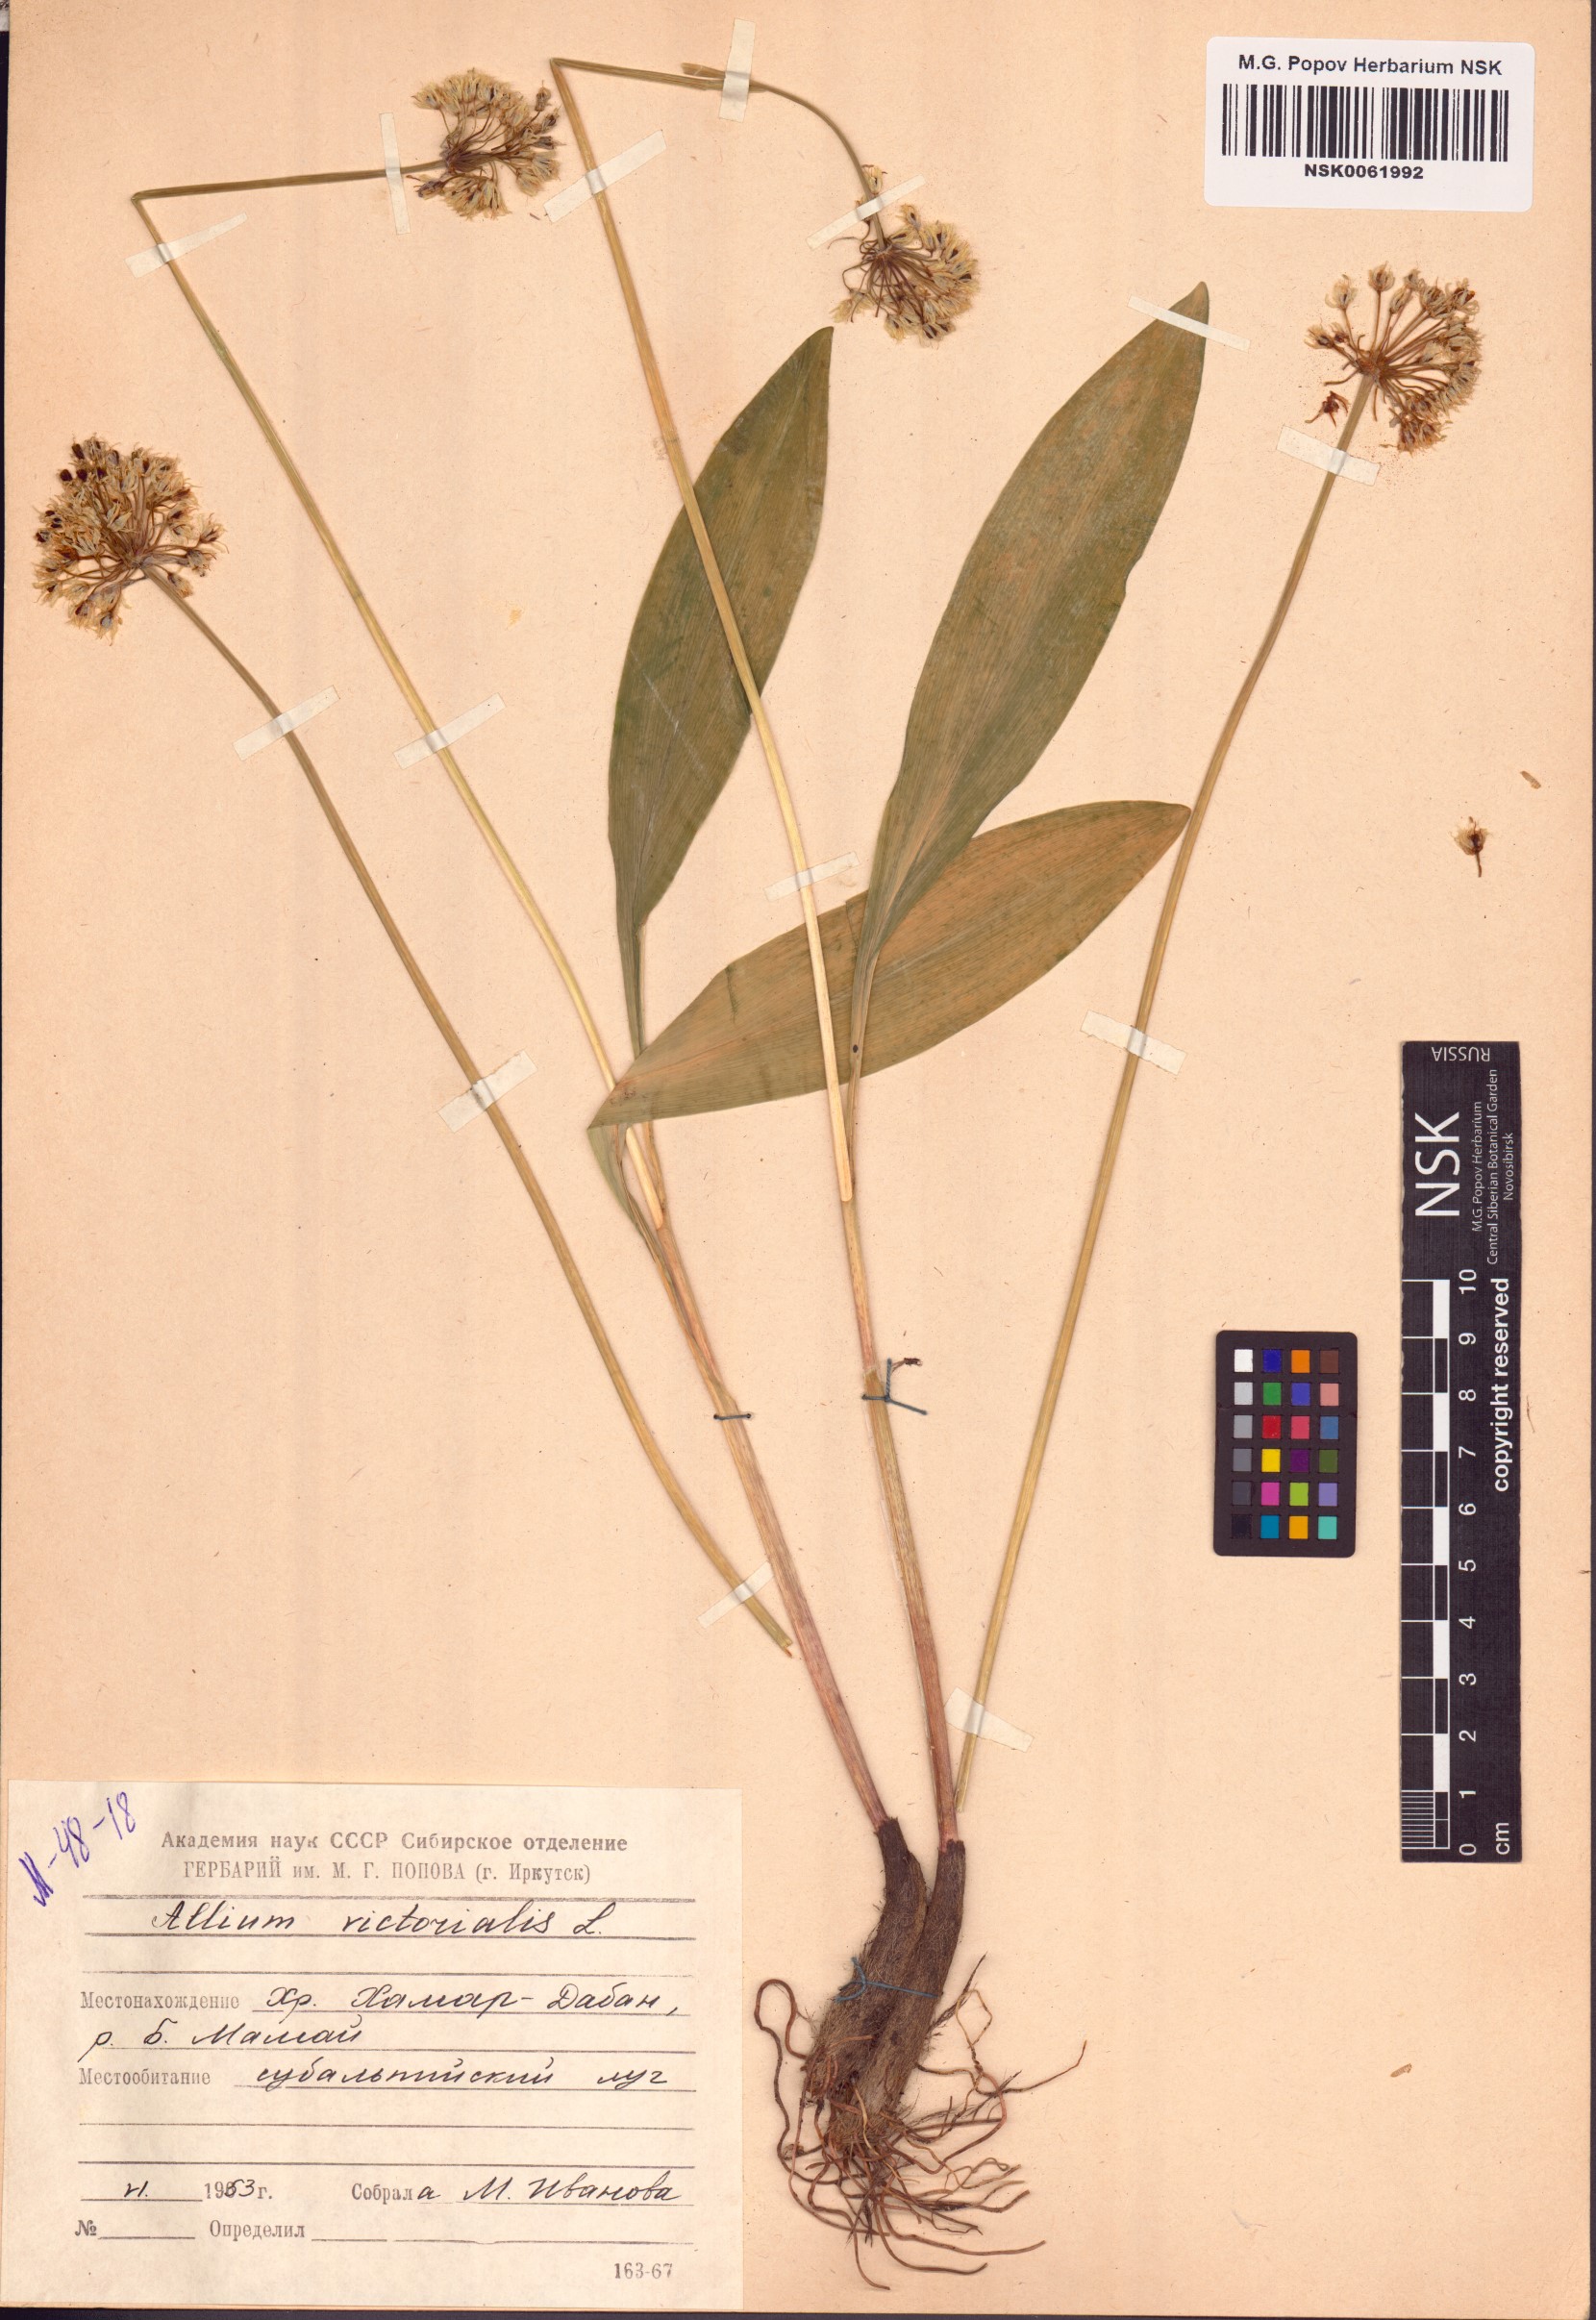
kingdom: Plantae
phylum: Tracheophyta
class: Liliopsida
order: Asparagales
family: Amaryllidaceae
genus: Allium
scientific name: Allium victorialis
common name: Alpine leek
